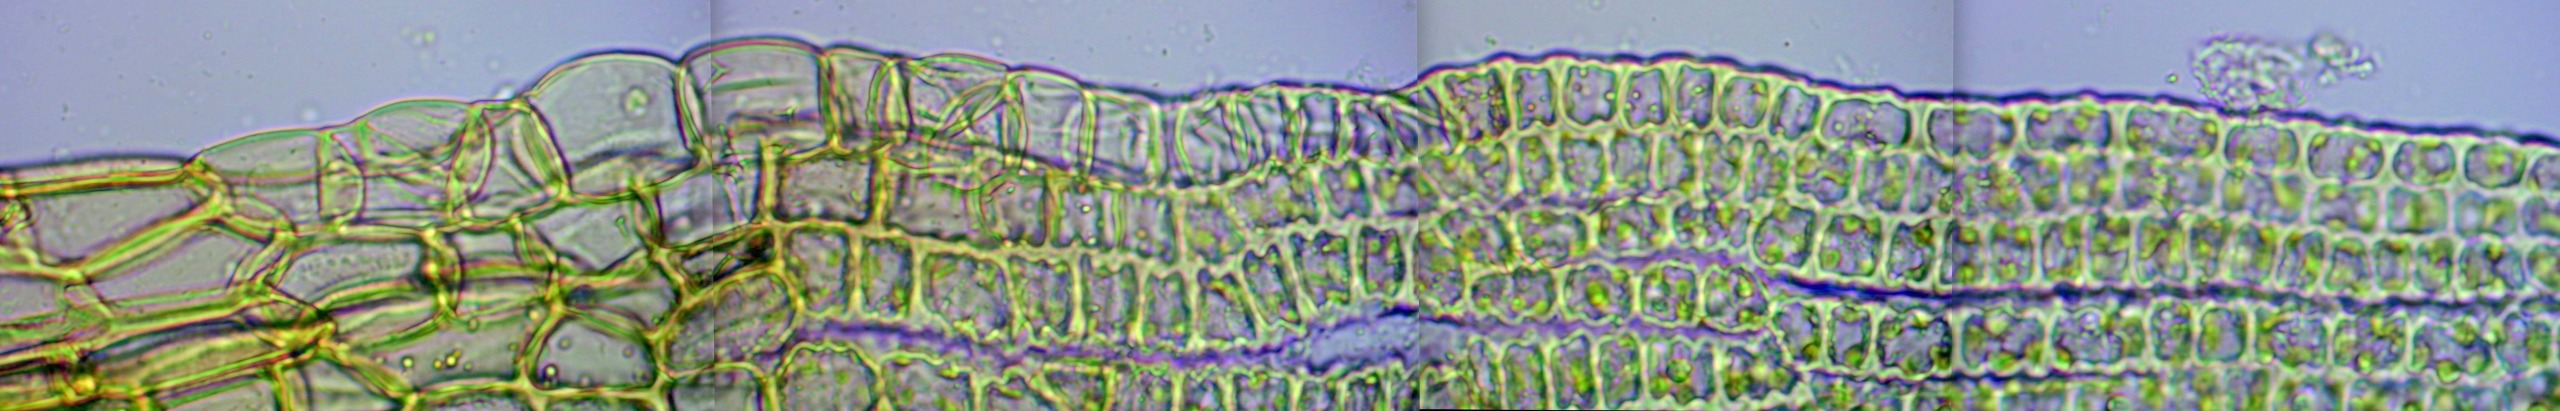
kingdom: Plantae
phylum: Bryophyta
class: Bryopsida
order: Grimmiales
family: Grimmiaceae
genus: Niphotrichum
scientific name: Niphotrichum elongatum
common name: Lang børstemos
